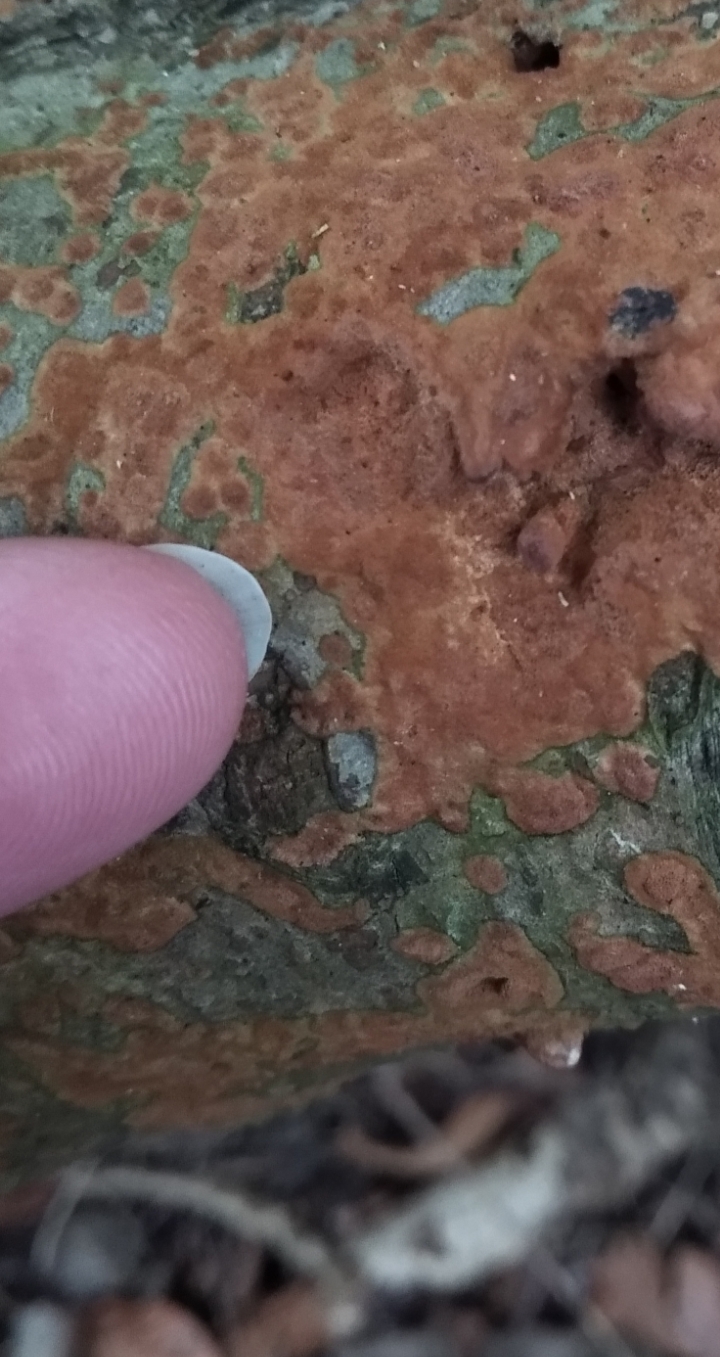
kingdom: Fungi
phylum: Basidiomycota
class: Agaricomycetes
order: Hymenochaetales
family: Hymenochaetaceae
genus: Fuscoporia
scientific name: Fuscoporia ferrea
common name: skorpe-ildporesvamp
